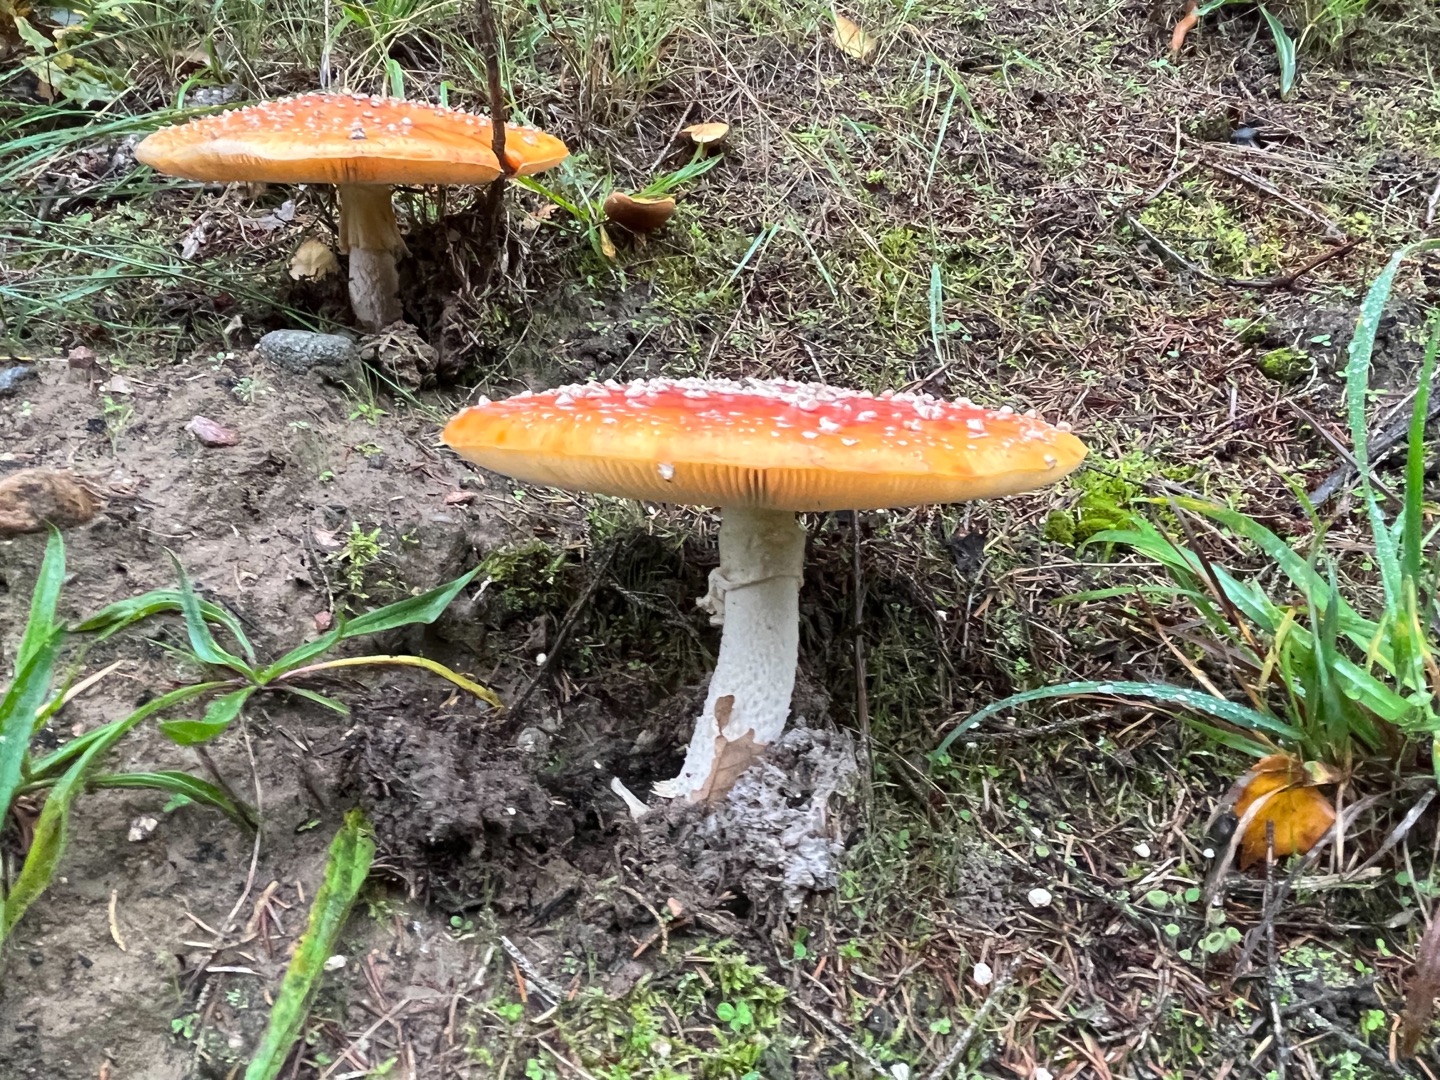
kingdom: Fungi
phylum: Basidiomycota
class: Agaricomycetes
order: Agaricales
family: Amanitaceae
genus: Amanita
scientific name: Amanita muscaria
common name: Rød fluesvamp
